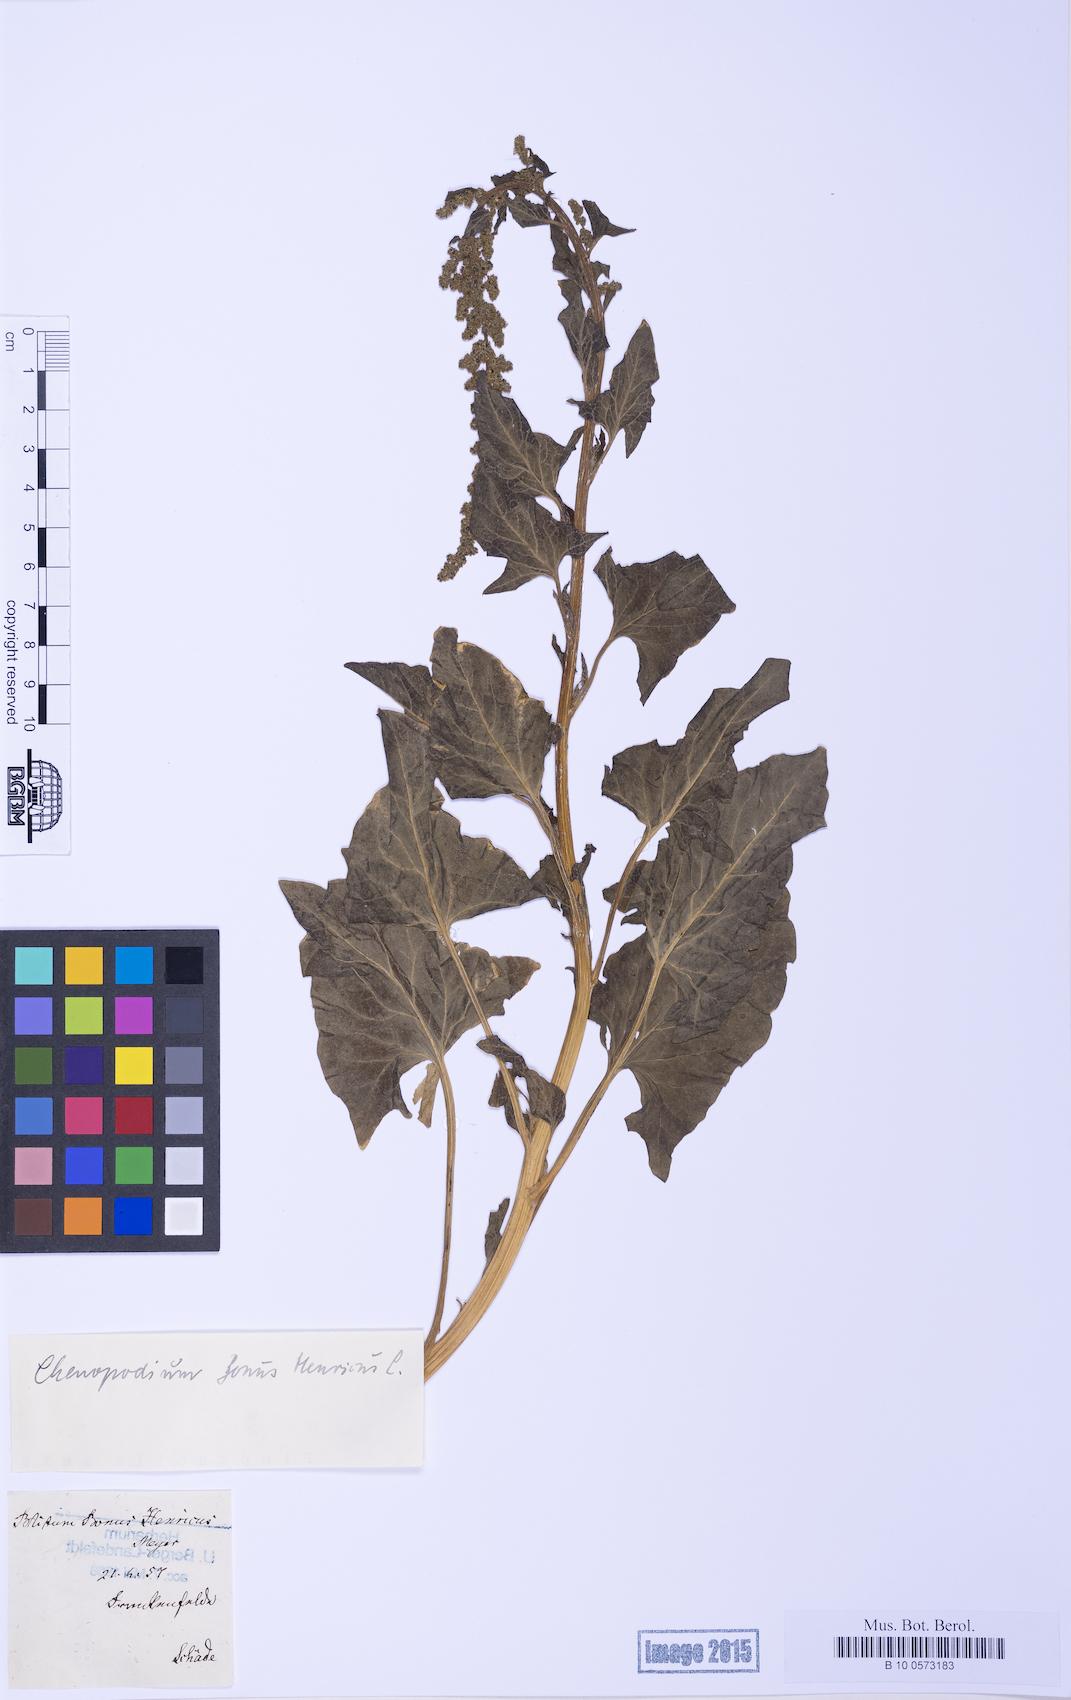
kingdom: Plantae
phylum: Tracheophyta
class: Magnoliopsida
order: Caryophyllales
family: Amaranthaceae
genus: Blitum
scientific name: Blitum bonus-henricus
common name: Good king henry
